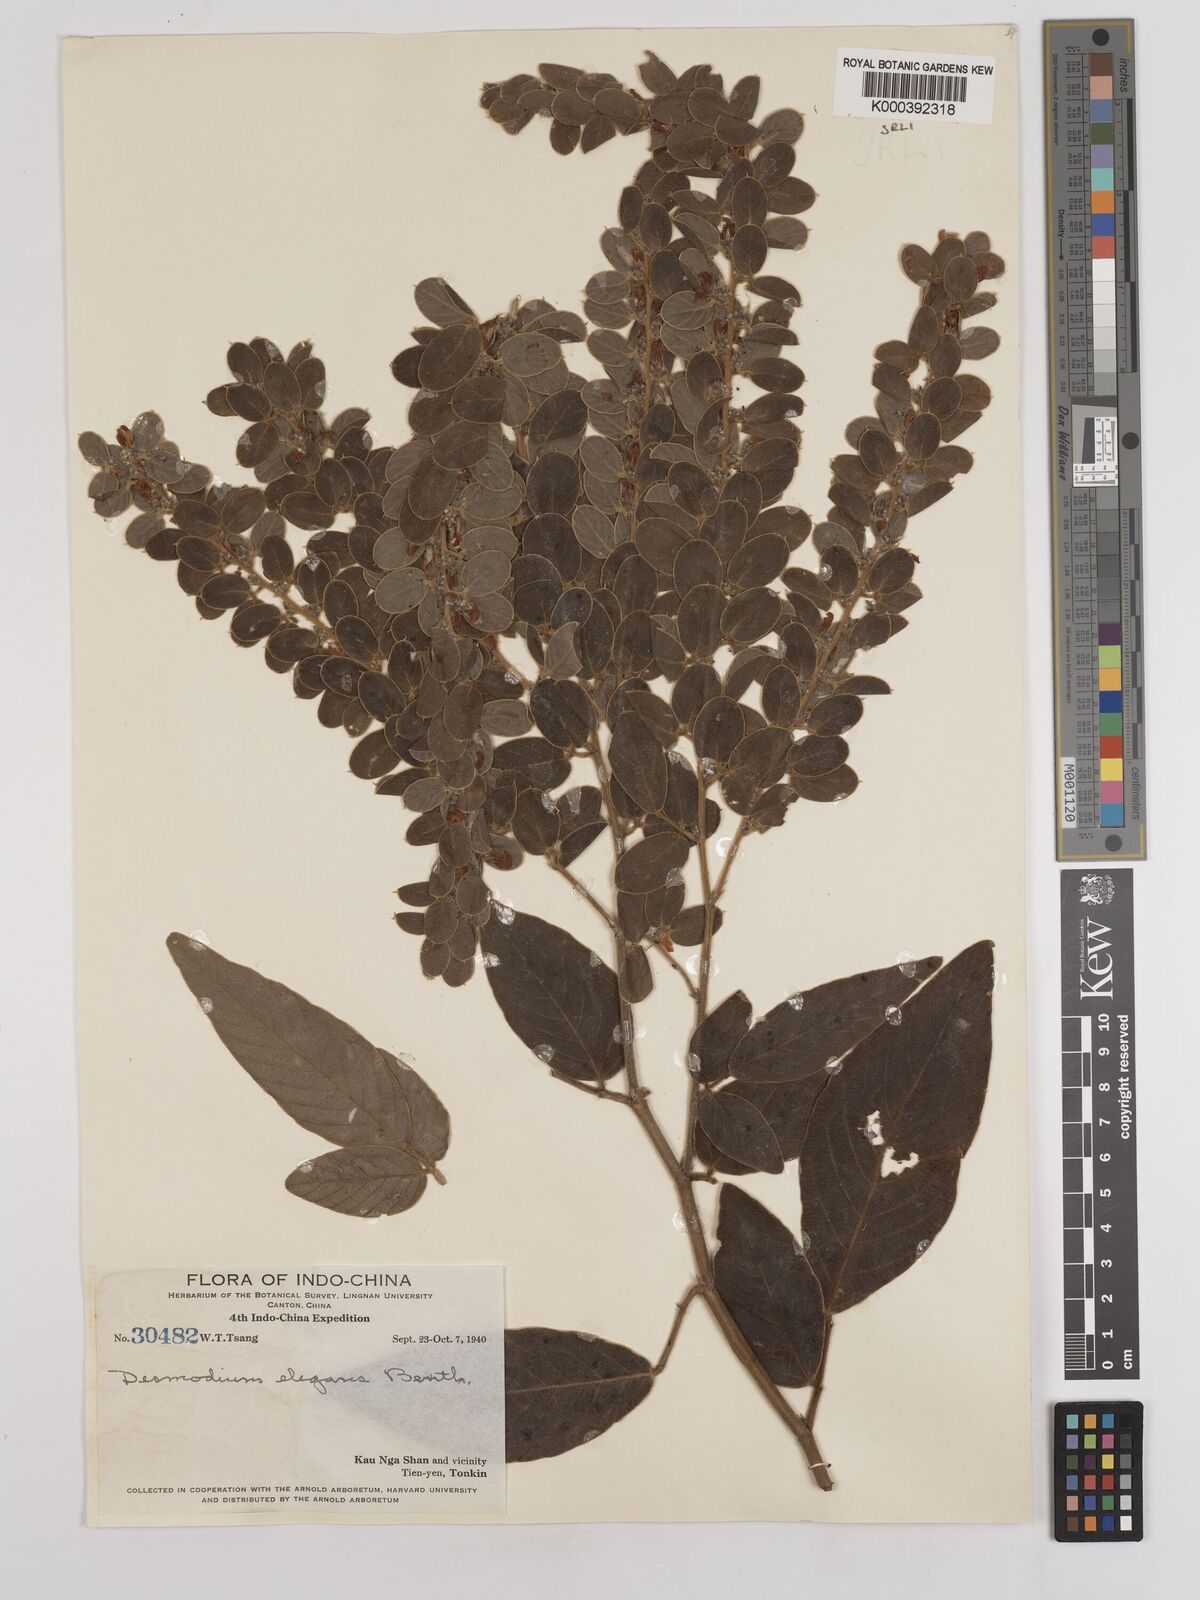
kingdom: Plantae
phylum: Tracheophyta
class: Magnoliopsida
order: Fabales
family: Fabaceae
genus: Phyllodium
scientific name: Phyllodium elegans
